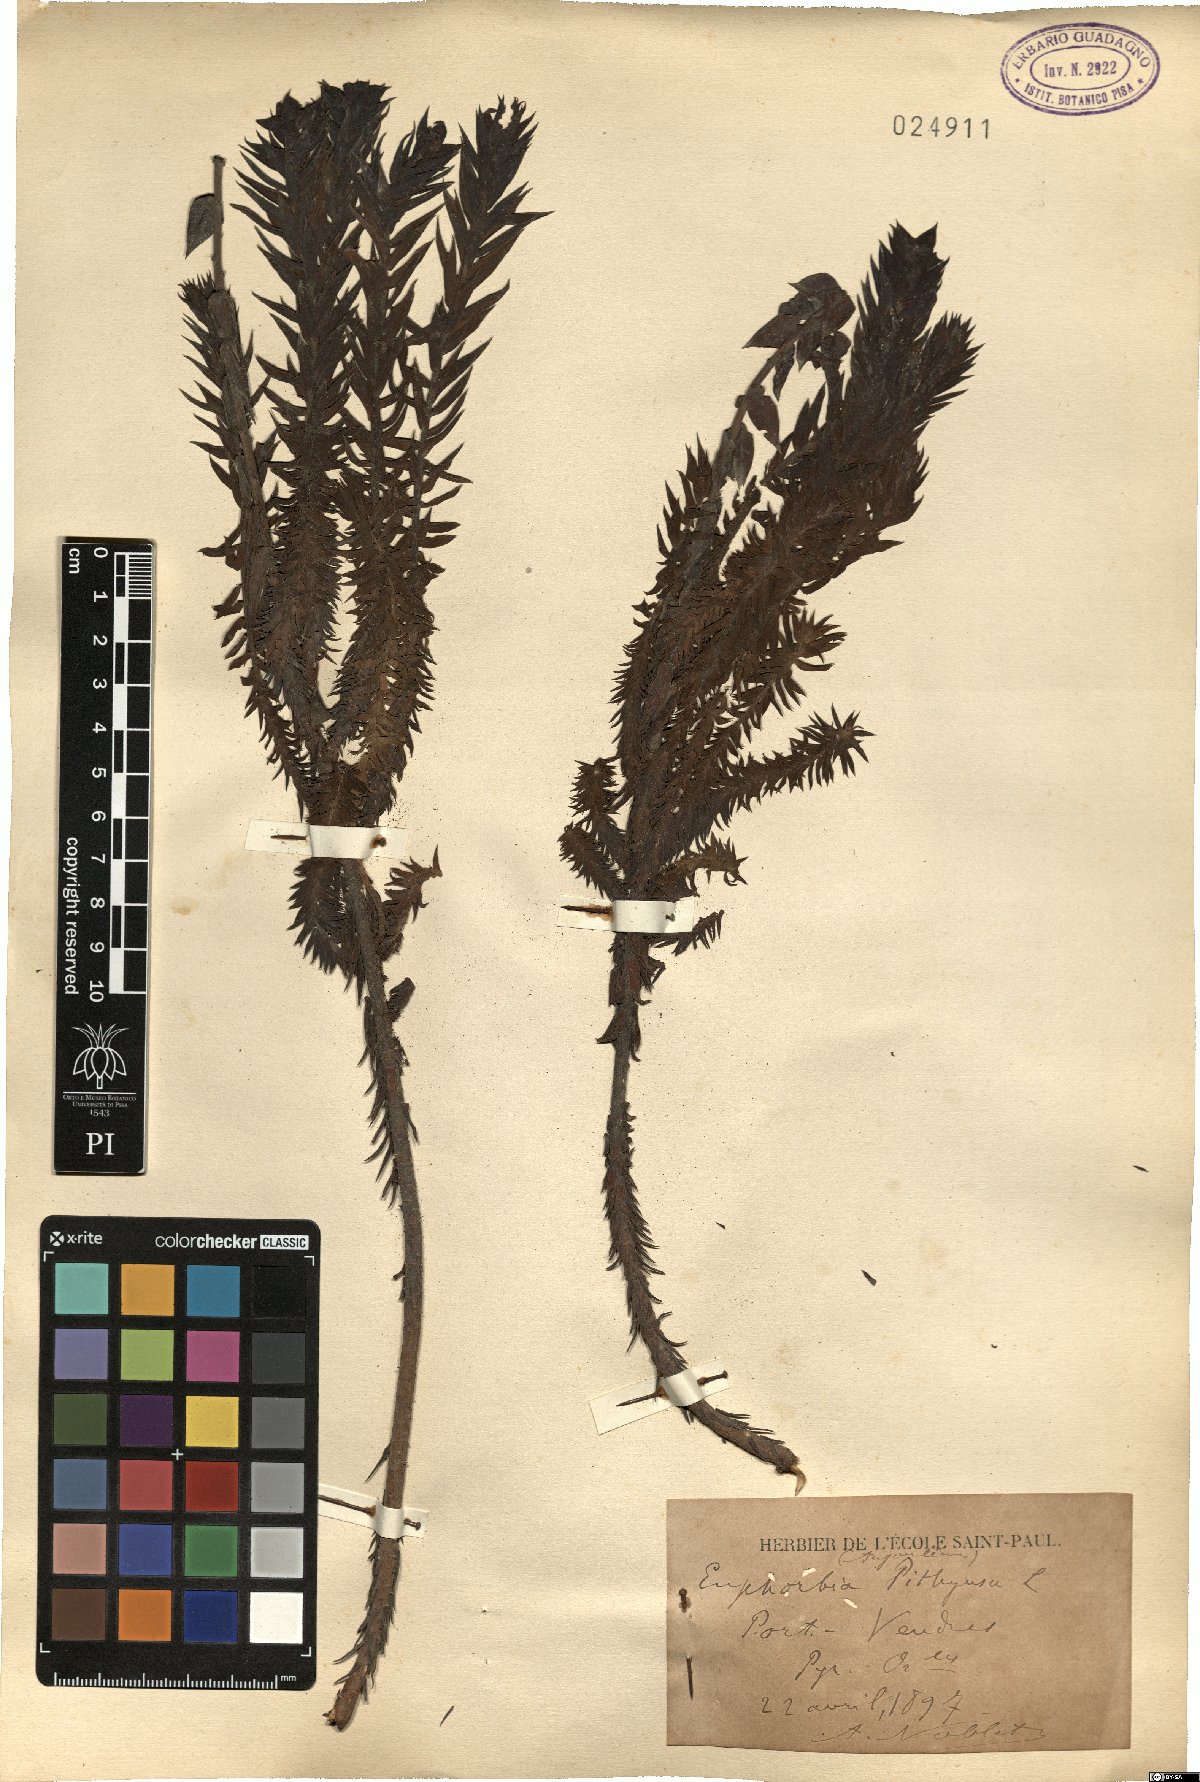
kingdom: Plantae
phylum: Tracheophyta
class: Magnoliopsida
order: Malpighiales
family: Euphorbiaceae
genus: Euphorbia
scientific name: Euphorbia pithyusa
